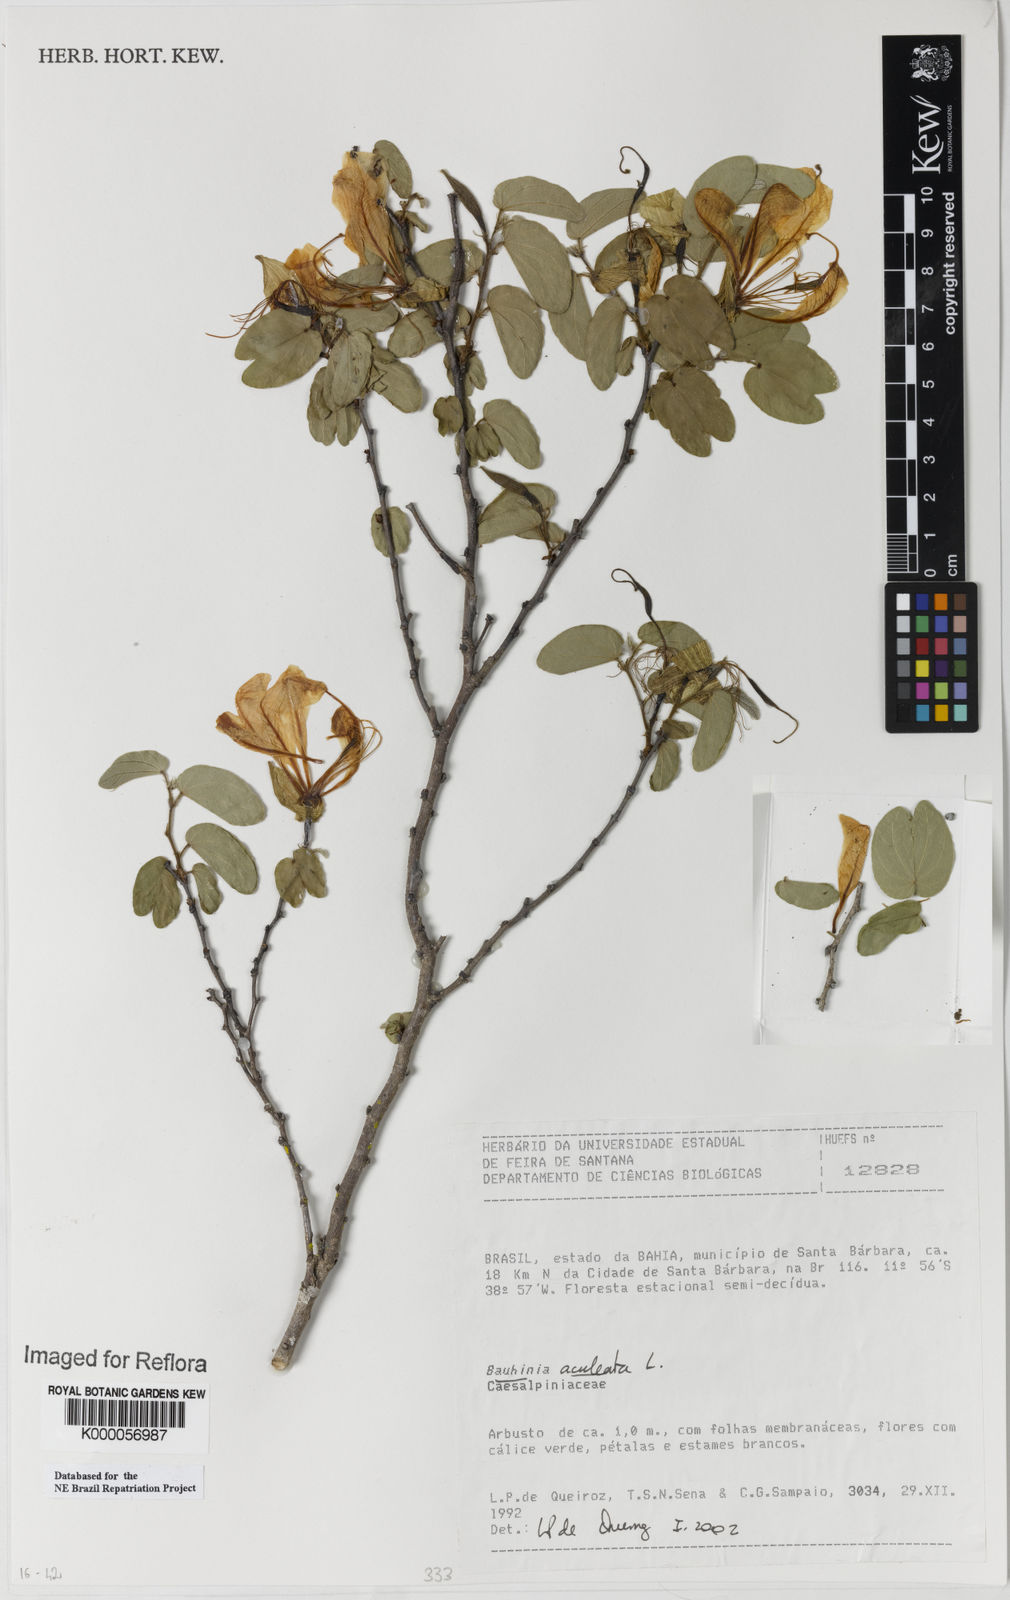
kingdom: Plantae
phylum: Tracheophyta
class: Magnoliopsida
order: Fabales
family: Fabaceae
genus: Bauhinia
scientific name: Bauhinia aculeata
